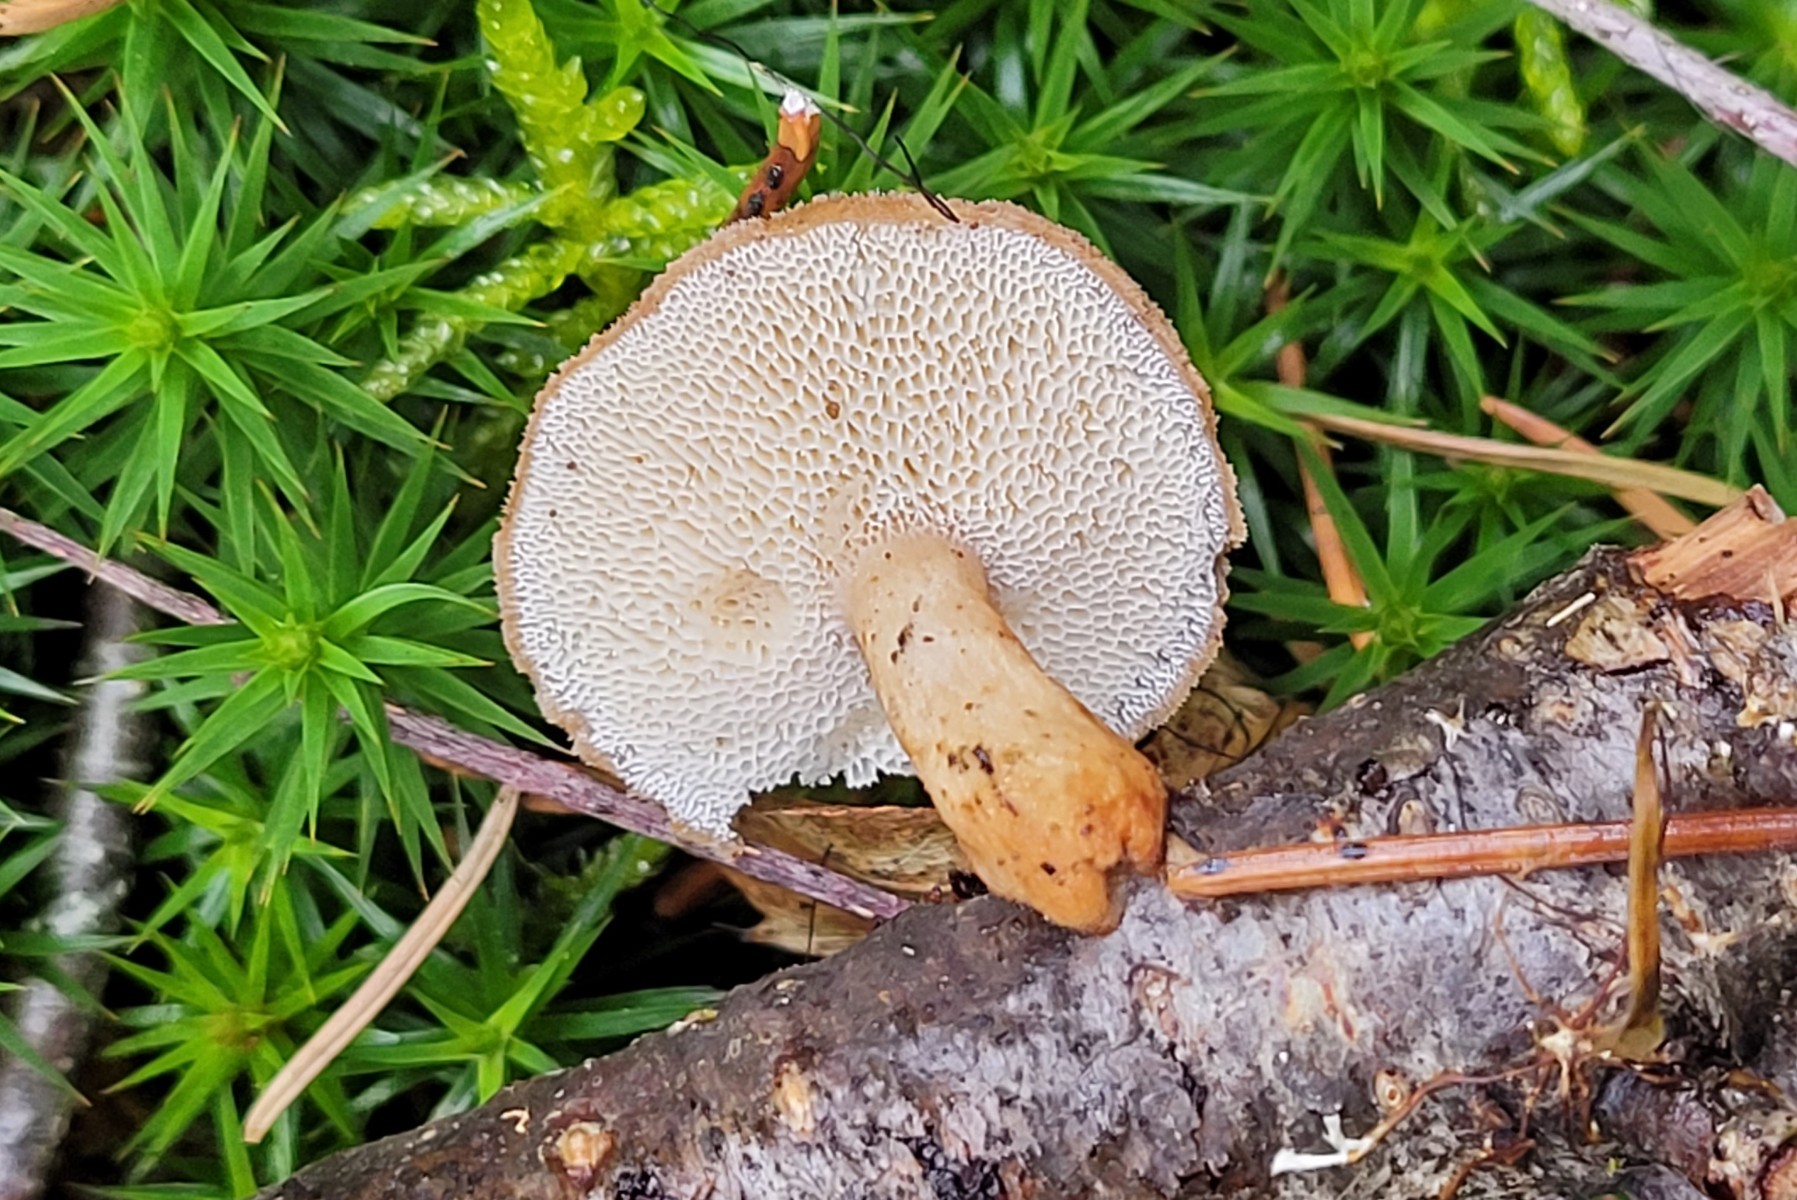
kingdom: Fungi
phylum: Basidiomycota
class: Agaricomycetes
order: Polyporales
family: Polyporaceae
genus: Lentinus
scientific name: Lentinus brumalis
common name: vinter-stilkporesvamp
